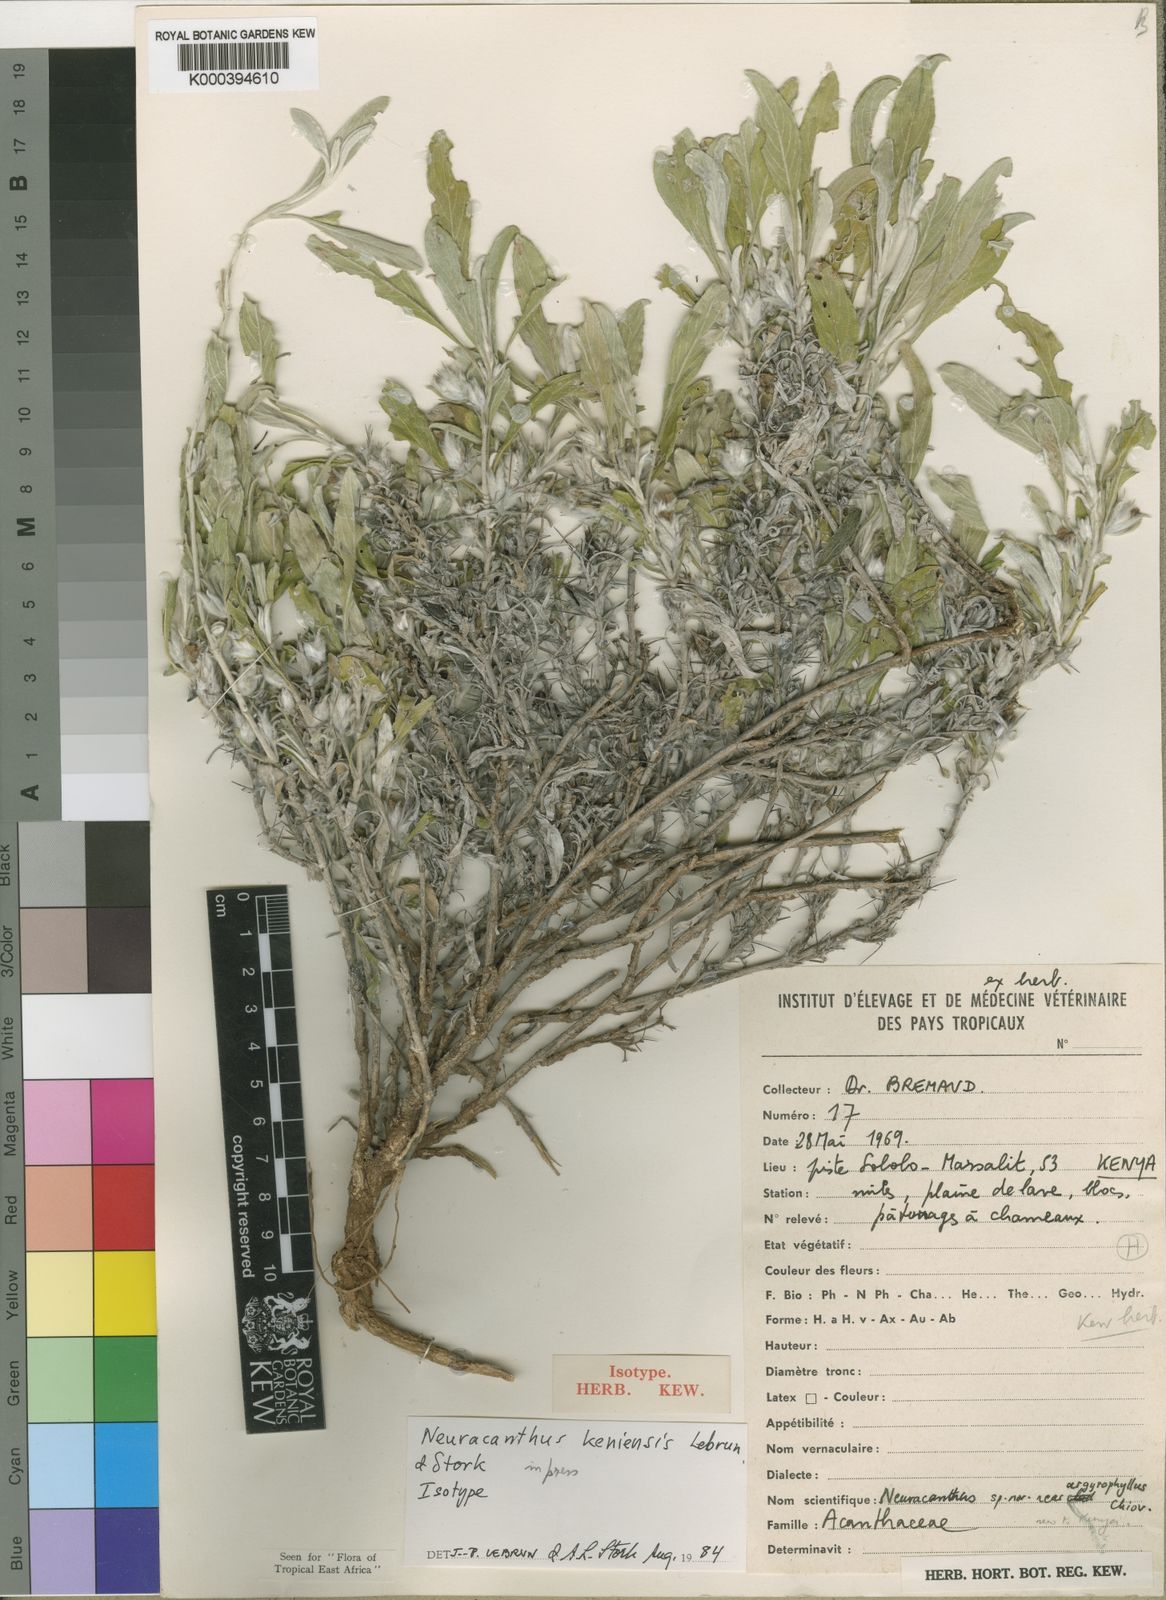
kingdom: Plantae
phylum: Tracheophyta
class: Magnoliopsida
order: Lamiales
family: Acanthaceae
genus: Neuracanthus
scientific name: Neuracanthus keniensis
